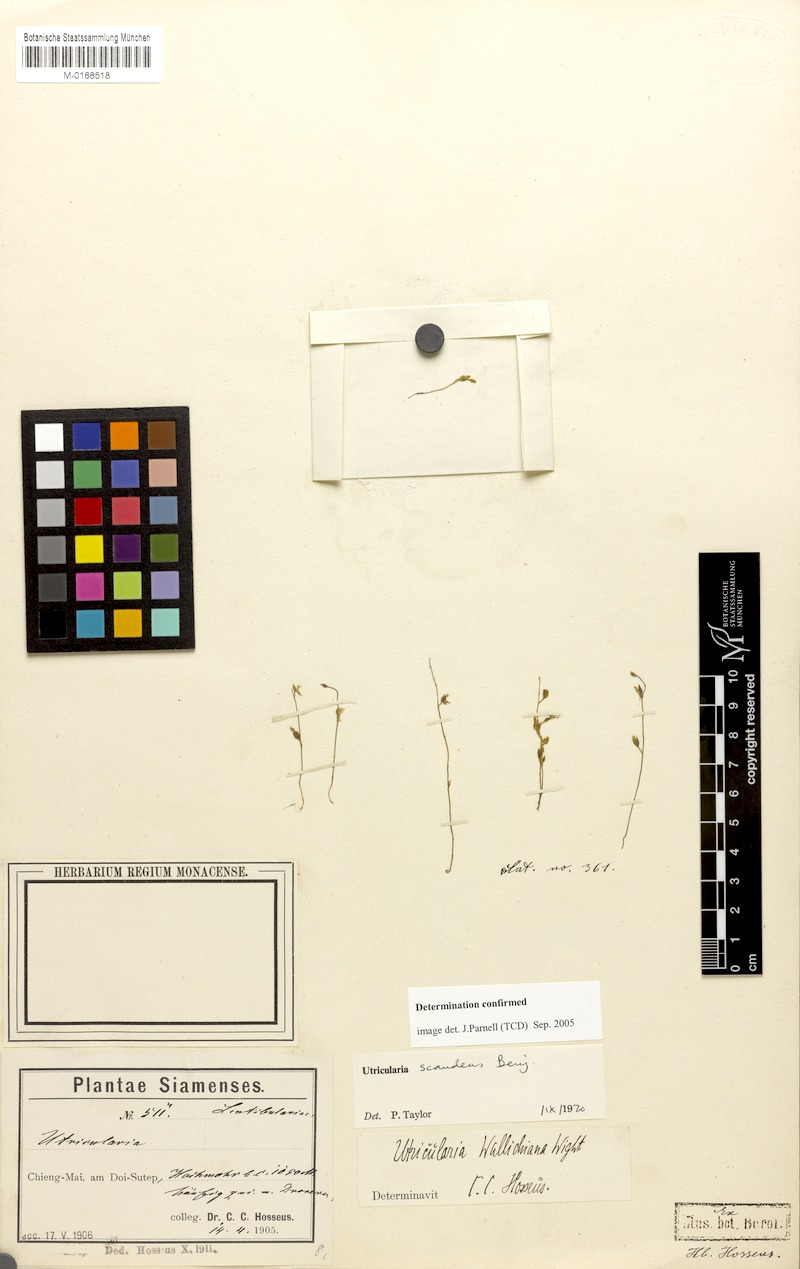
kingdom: Plantae
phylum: Tracheophyta
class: Magnoliopsida
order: Lamiales
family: Lentibulariaceae
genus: Utricularia
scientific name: Utricularia scandens
